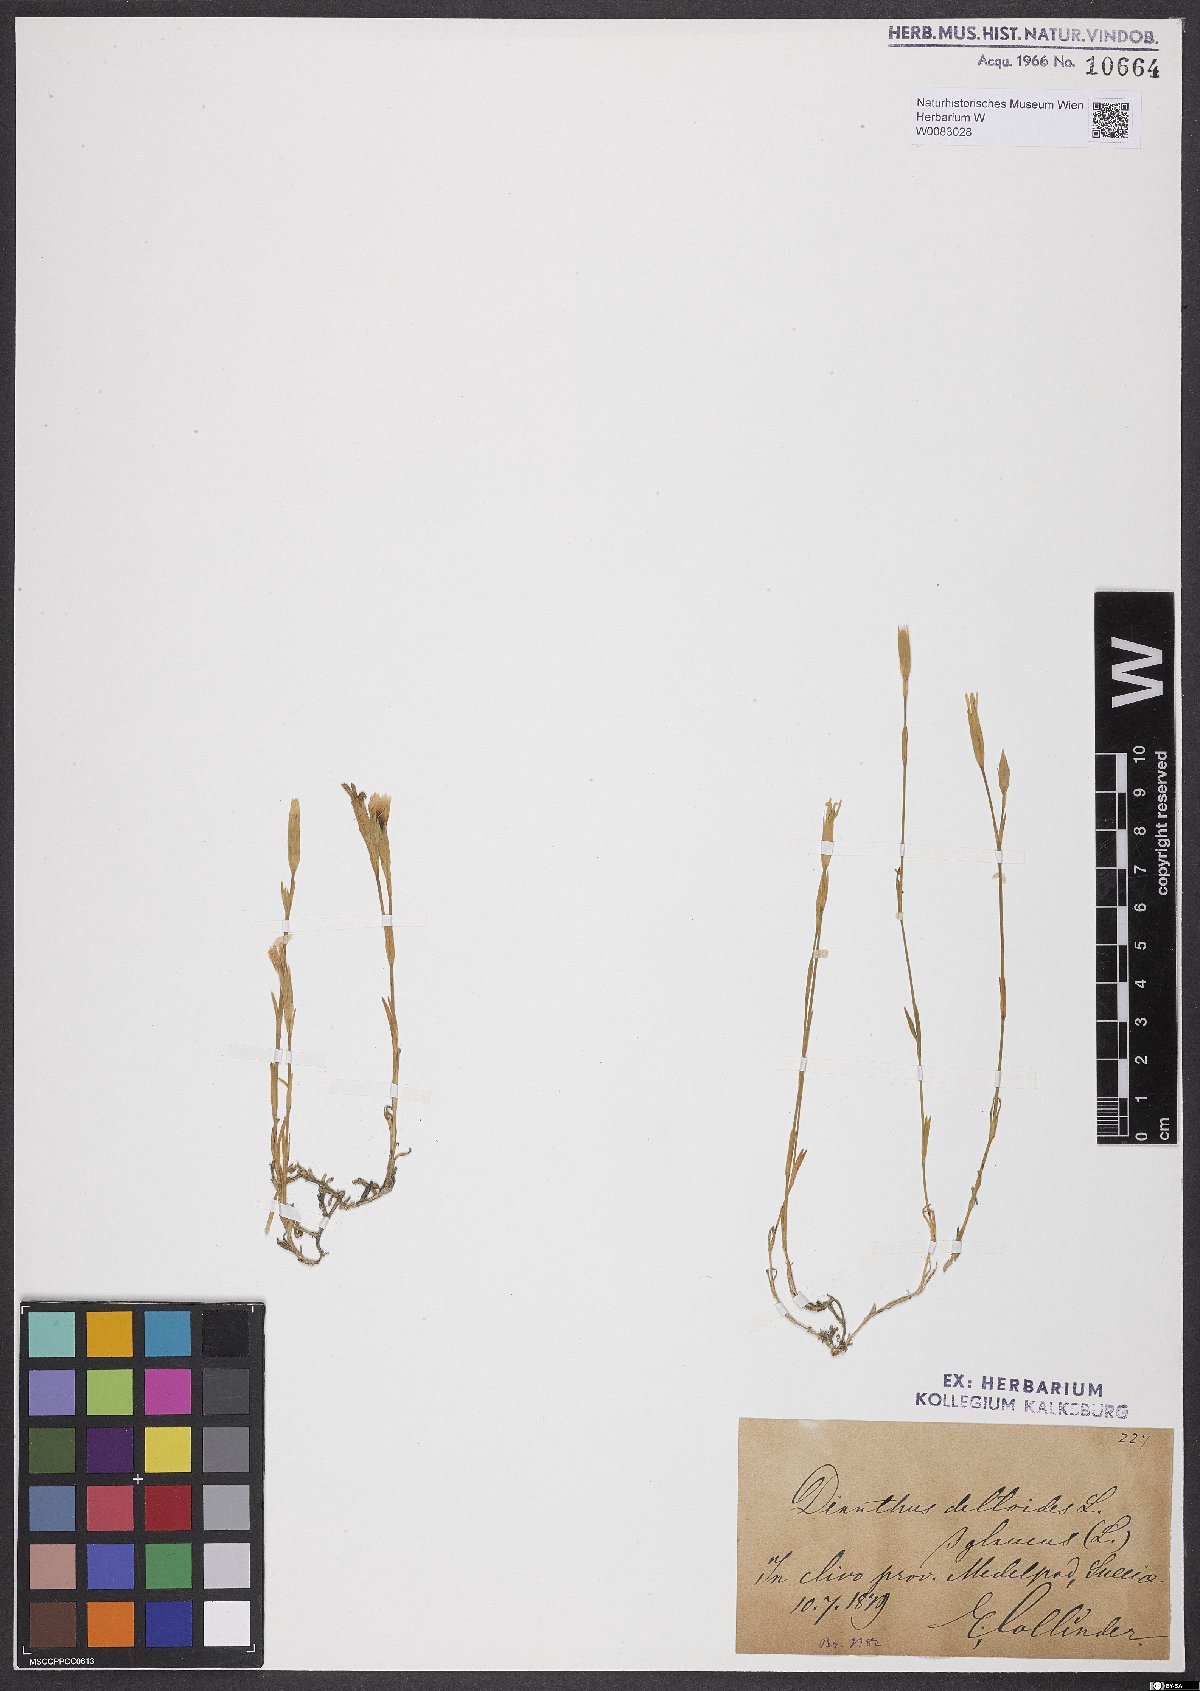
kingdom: Plantae
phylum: Tracheophyta
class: Magnoliopsida
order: Caryophyllales
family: Caryophyllaceae
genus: Dianthus
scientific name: Dianthus deltoides
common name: Maiden pink
